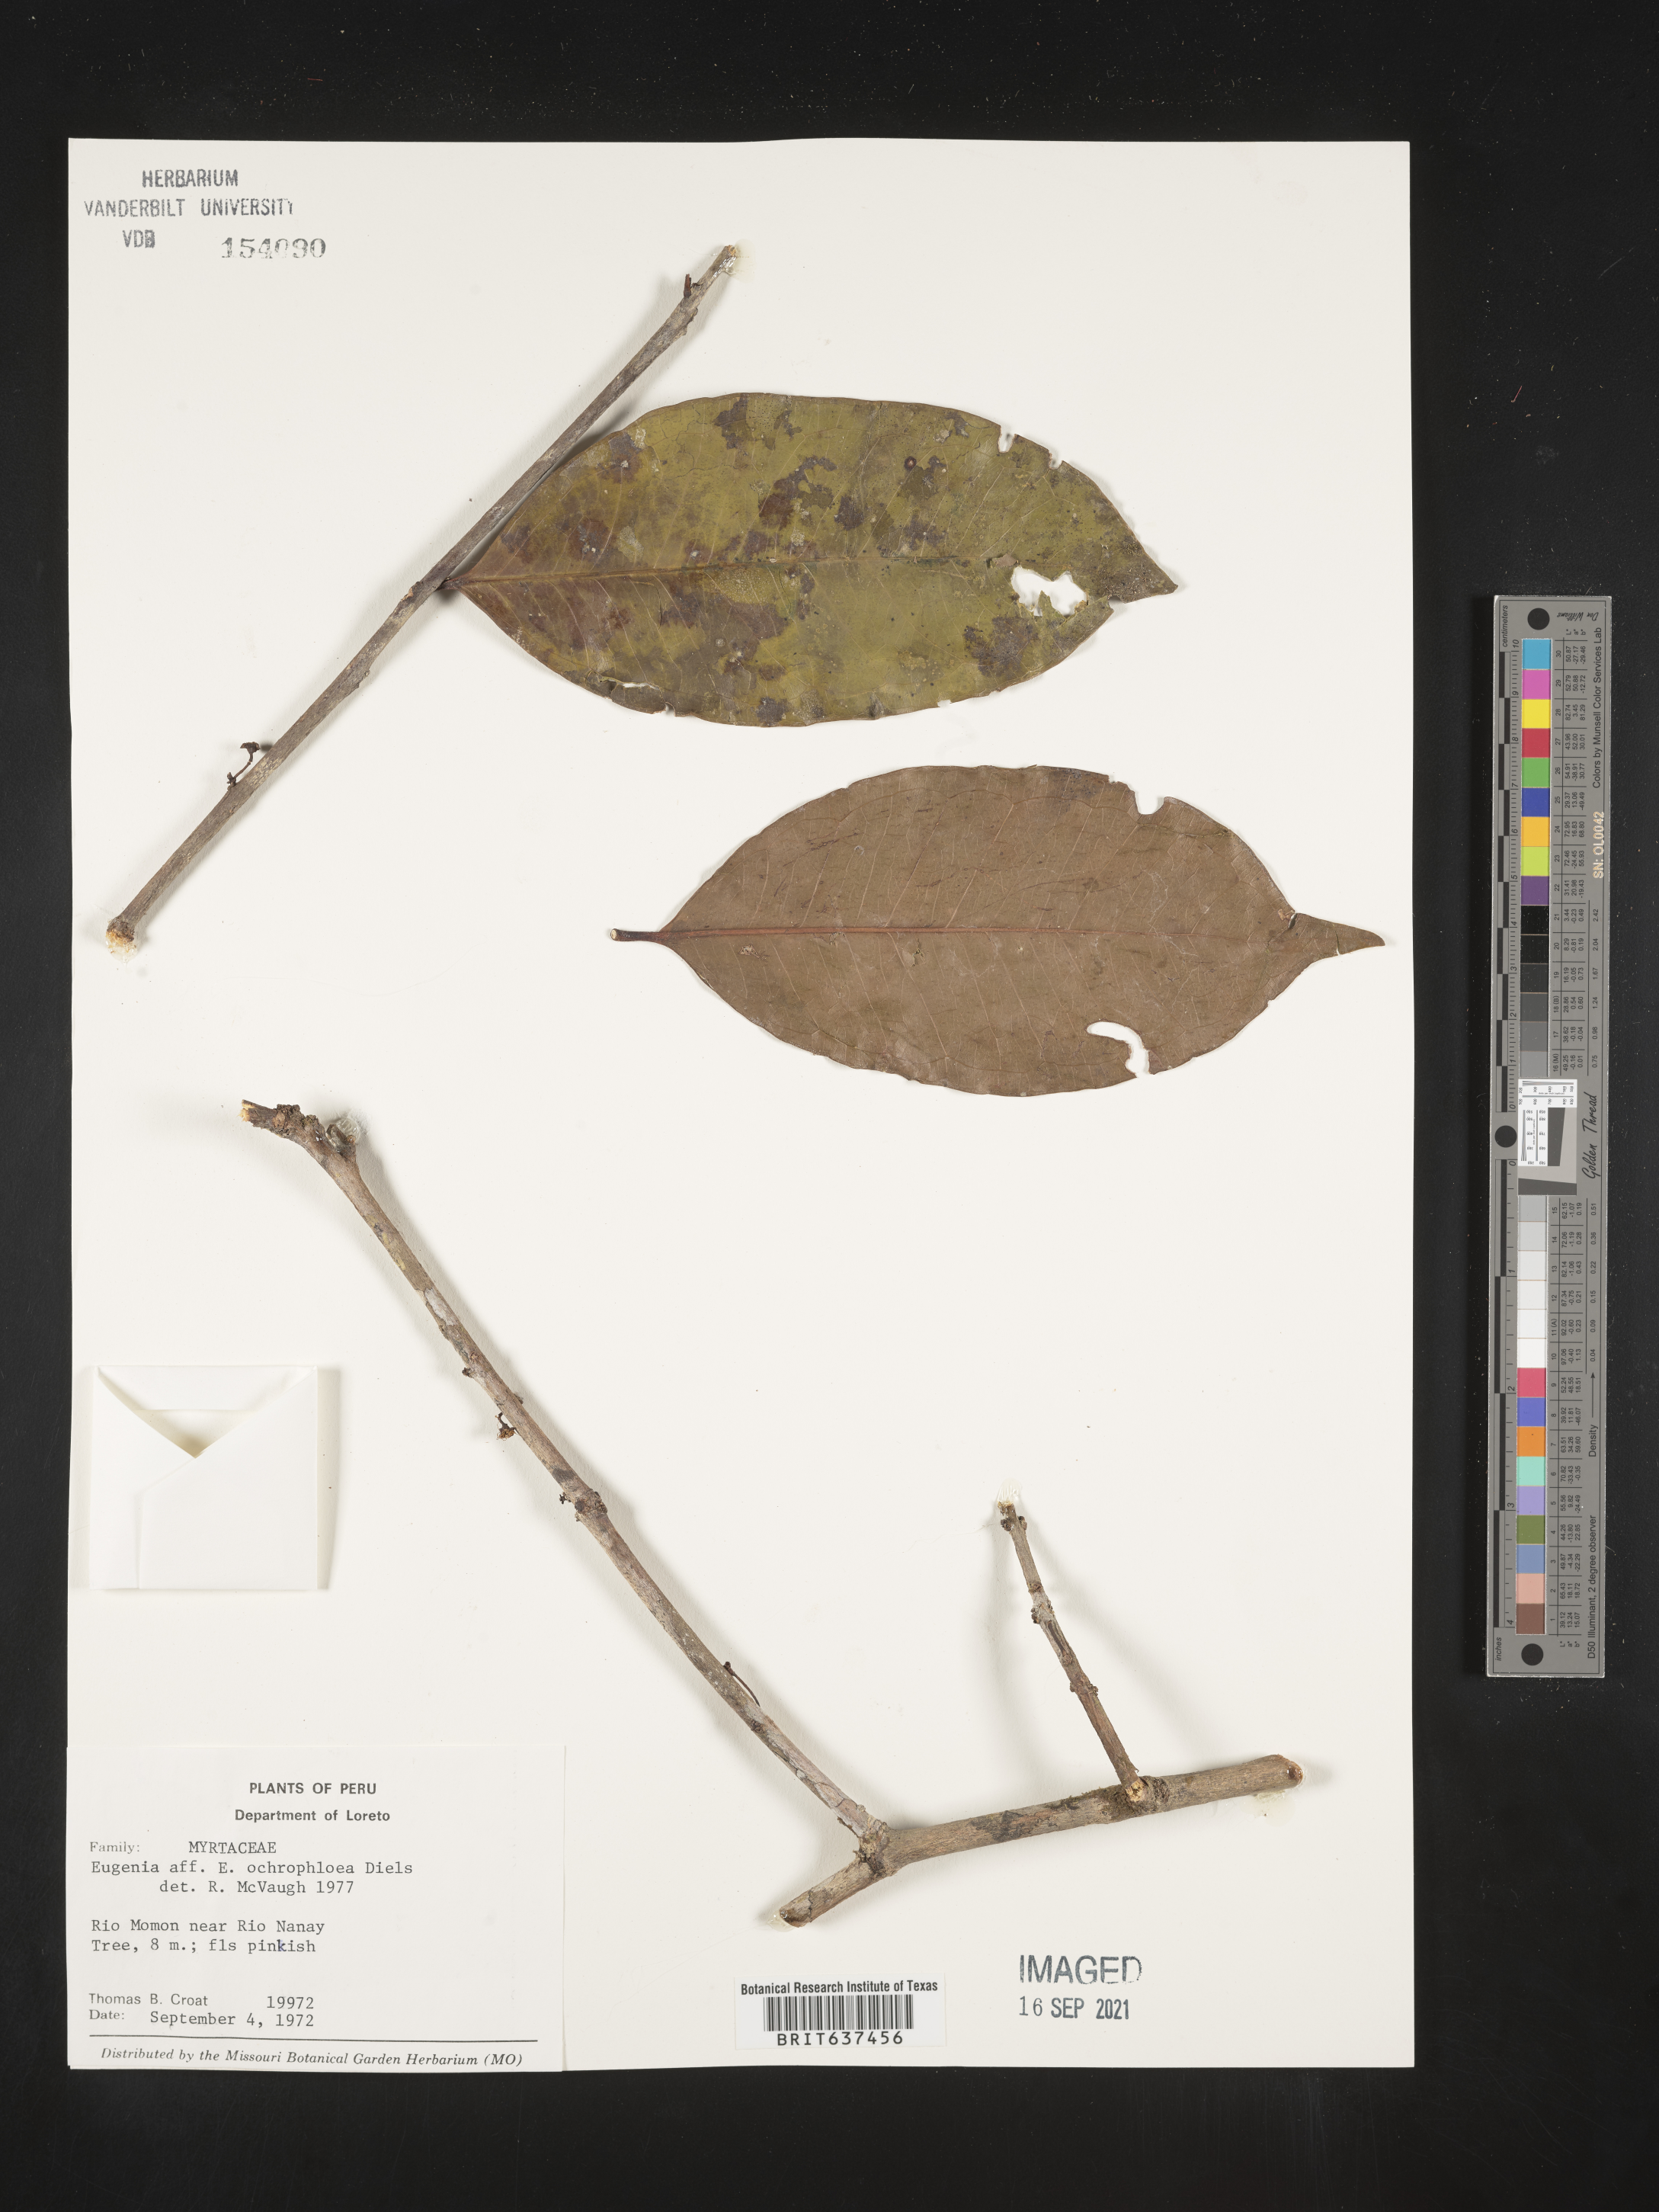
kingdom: Plantae
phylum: Tracheophyta
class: Magnoliopsida
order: Myrtales
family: Myrtaceae
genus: Eugenia
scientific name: Eugenia
